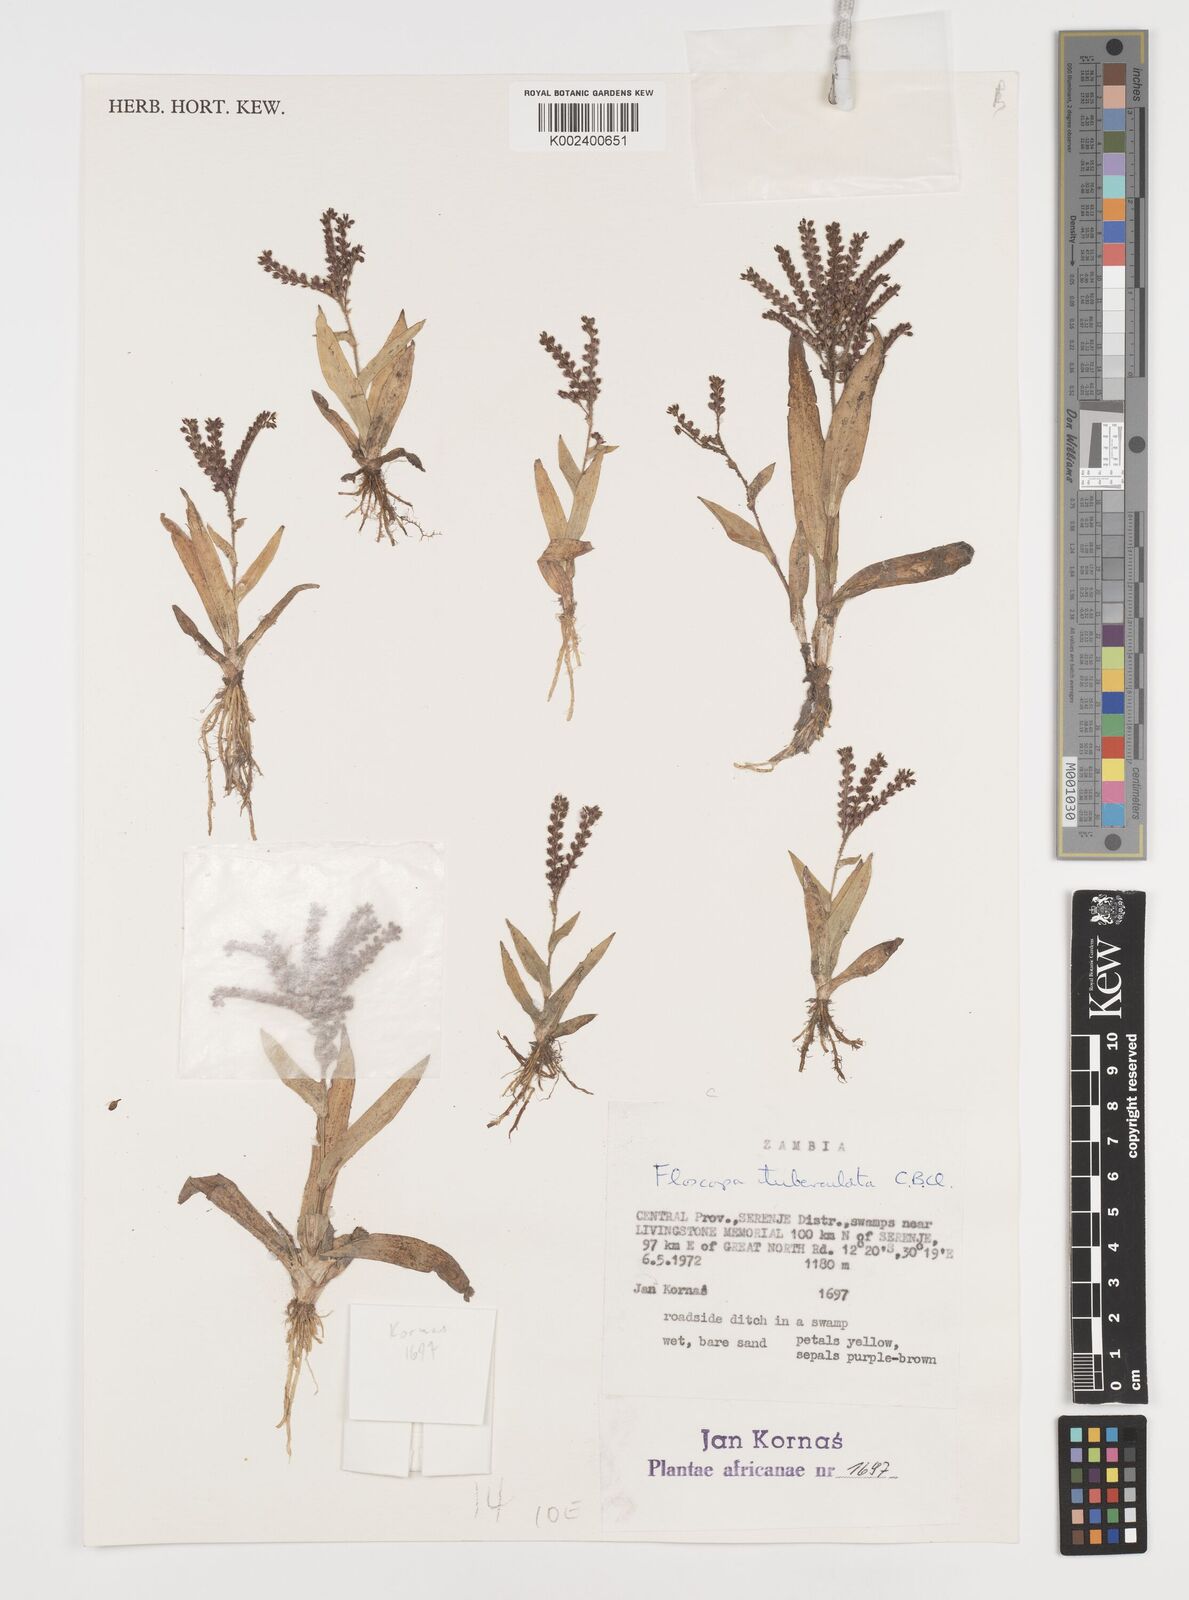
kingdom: Plantae
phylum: Tracheophyta
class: Liliopsida
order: Commelinales
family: Commelinaceae
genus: Floscopa
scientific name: Floscopa tuberculata
